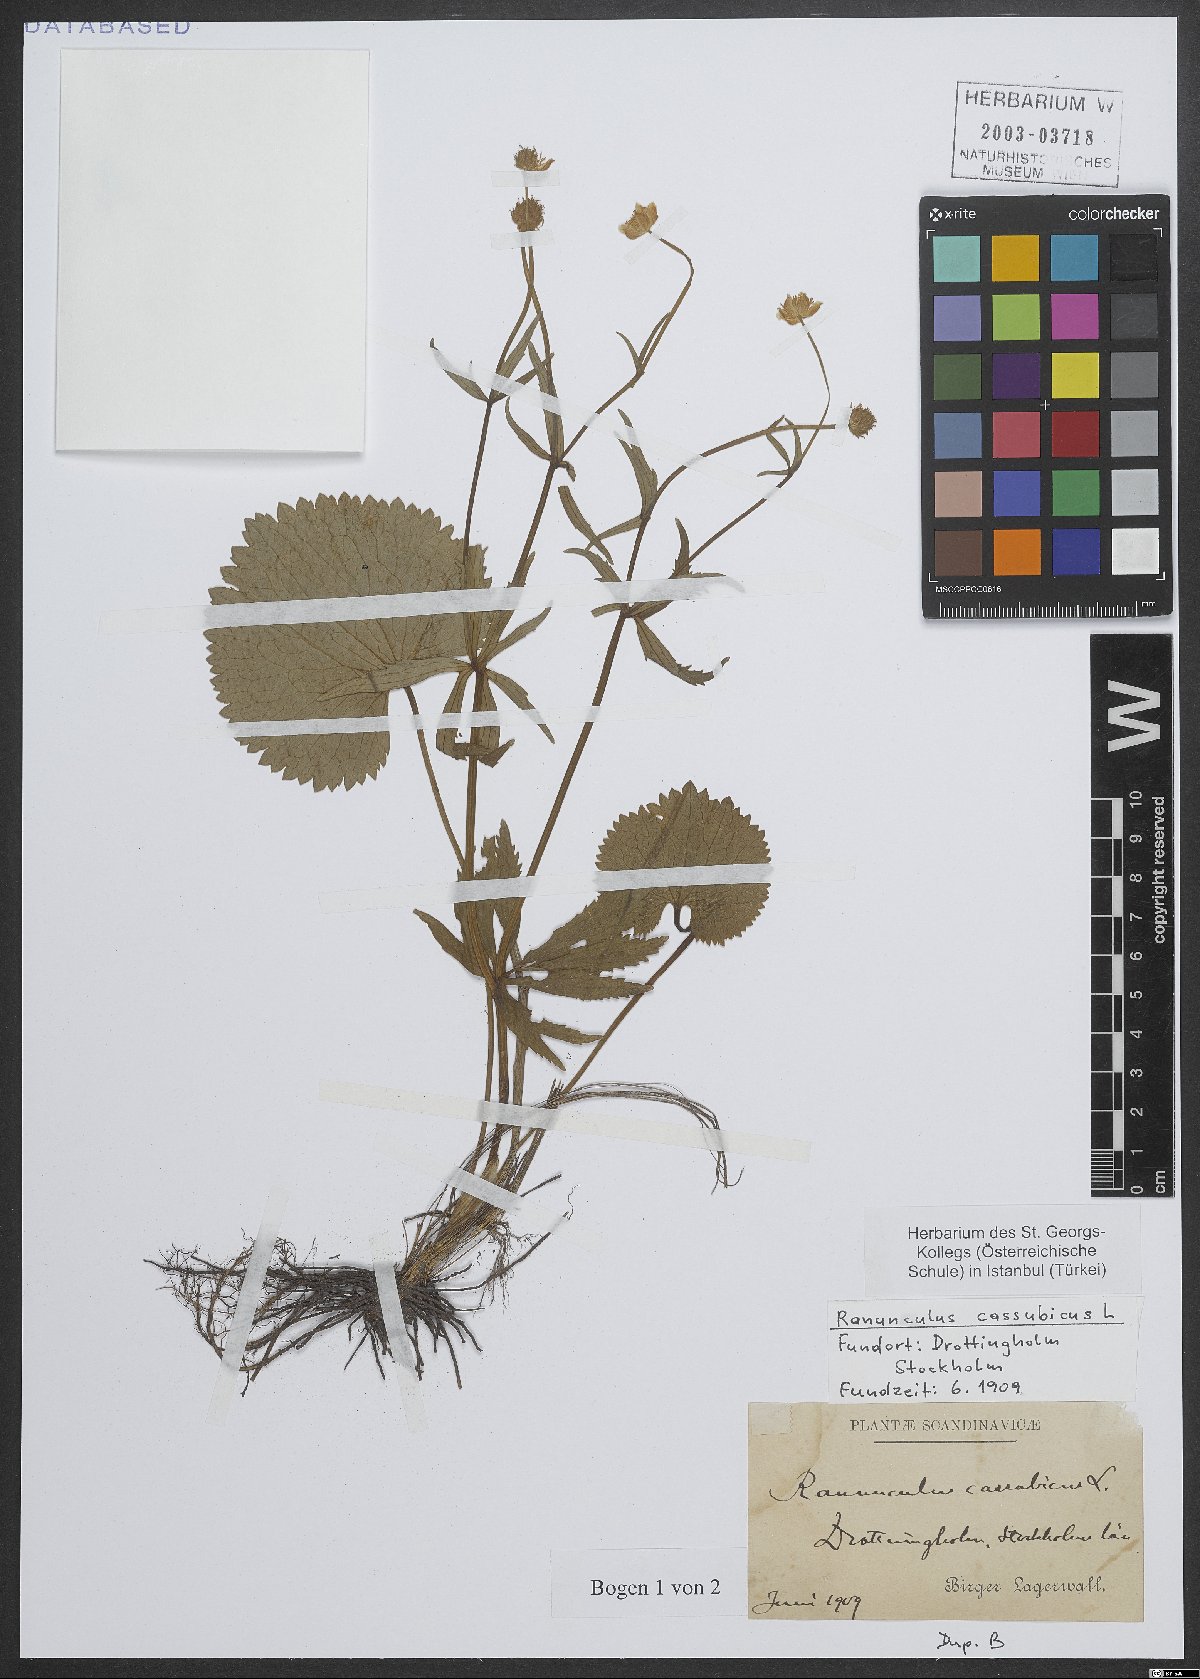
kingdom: Plantae
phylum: Tracheophyta
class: Magnoliopsida
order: Ranunculales
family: Ranunculaceae
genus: Ranunculus
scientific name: Ranunculus cassubicus
